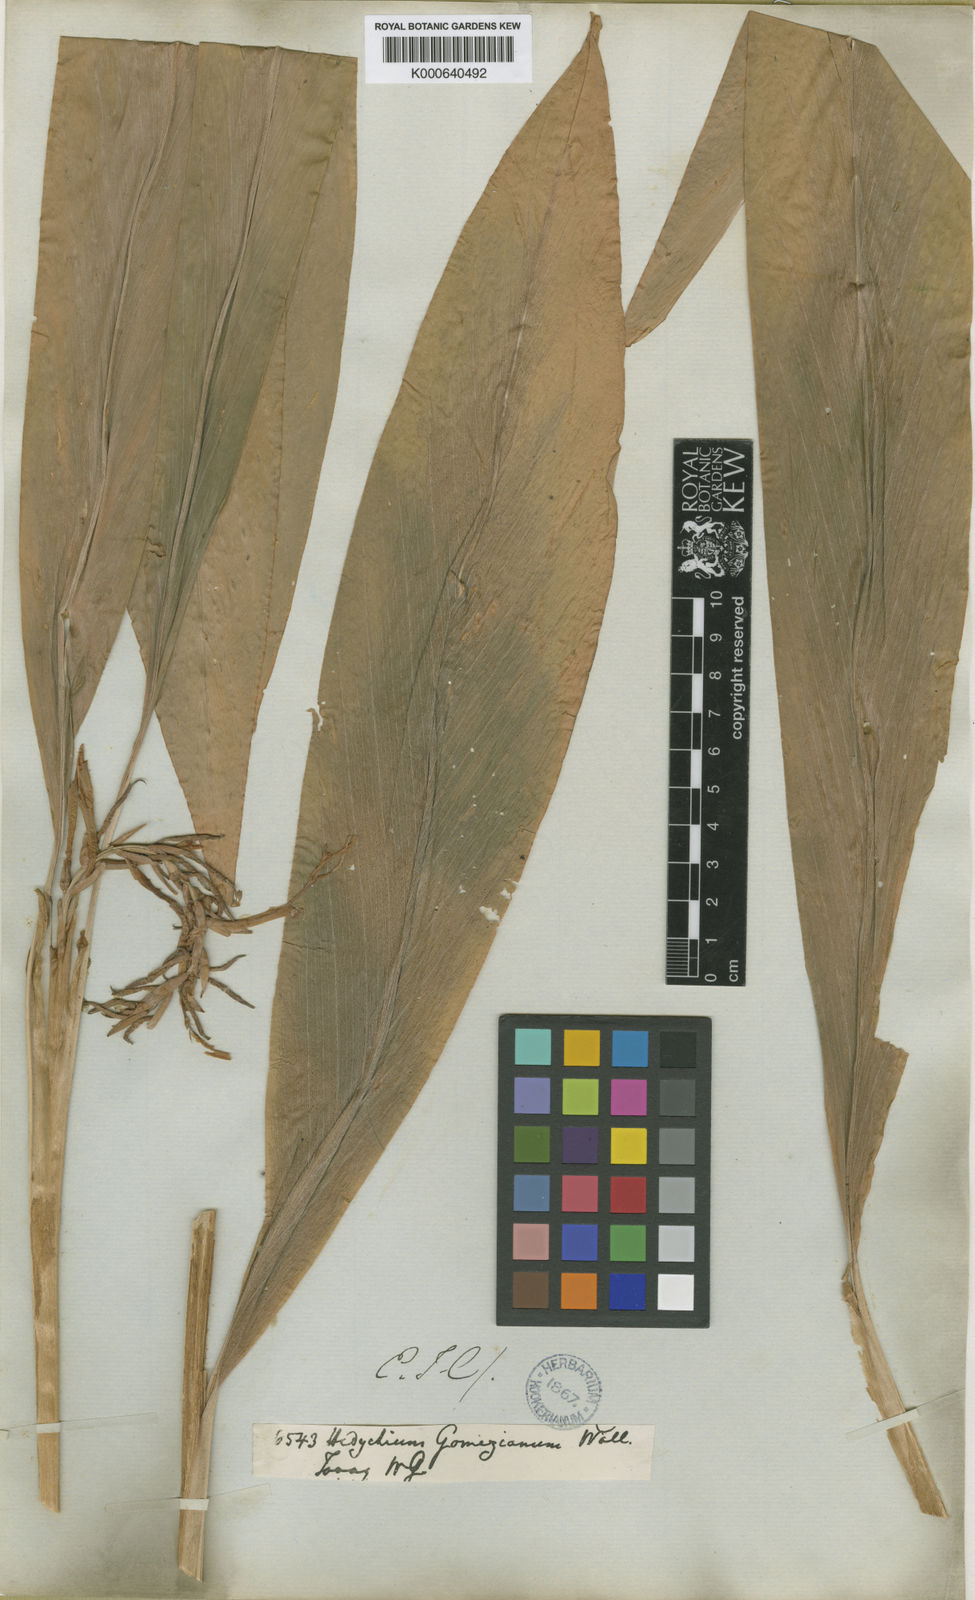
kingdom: Plantae
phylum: Tracheophyta
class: Liliopsida
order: Zingiberales
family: Zingiberaceae
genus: Hedychium
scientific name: Hedychium gomezianum
